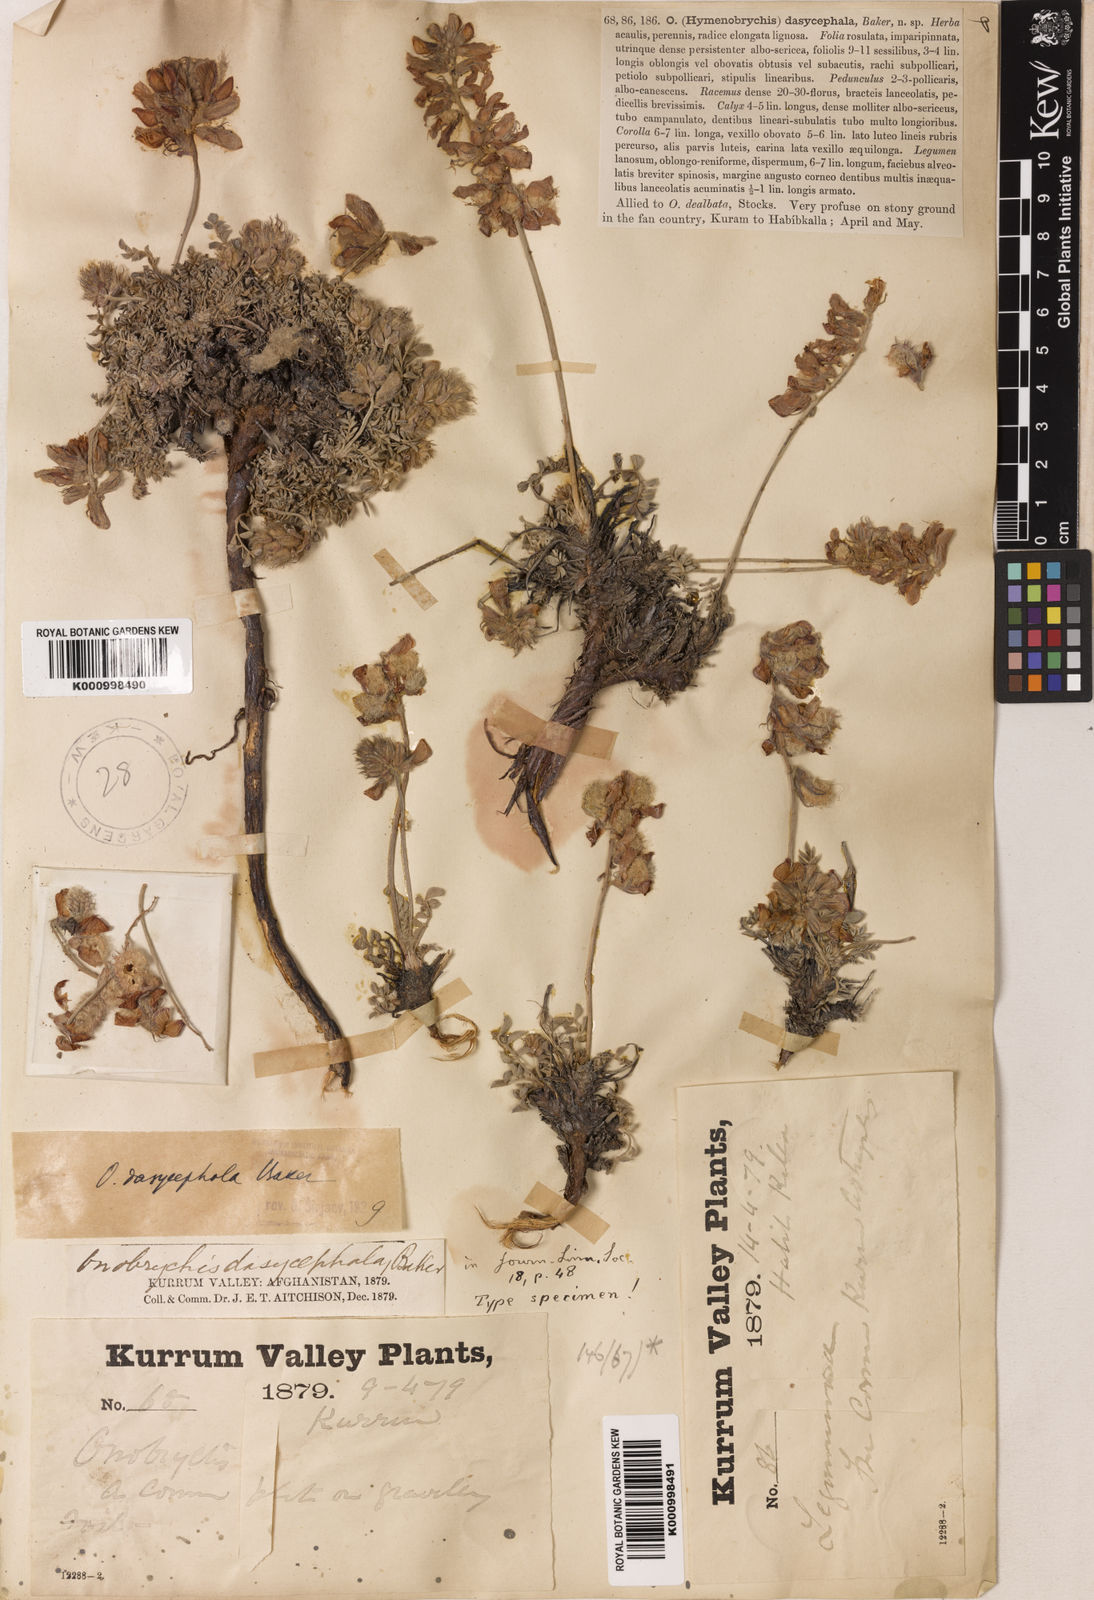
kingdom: Plantae
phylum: Tracheophyta
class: Magnoliopsida
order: Fabales
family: Fabaceae
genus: Onobrychis
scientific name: Onobrychis
